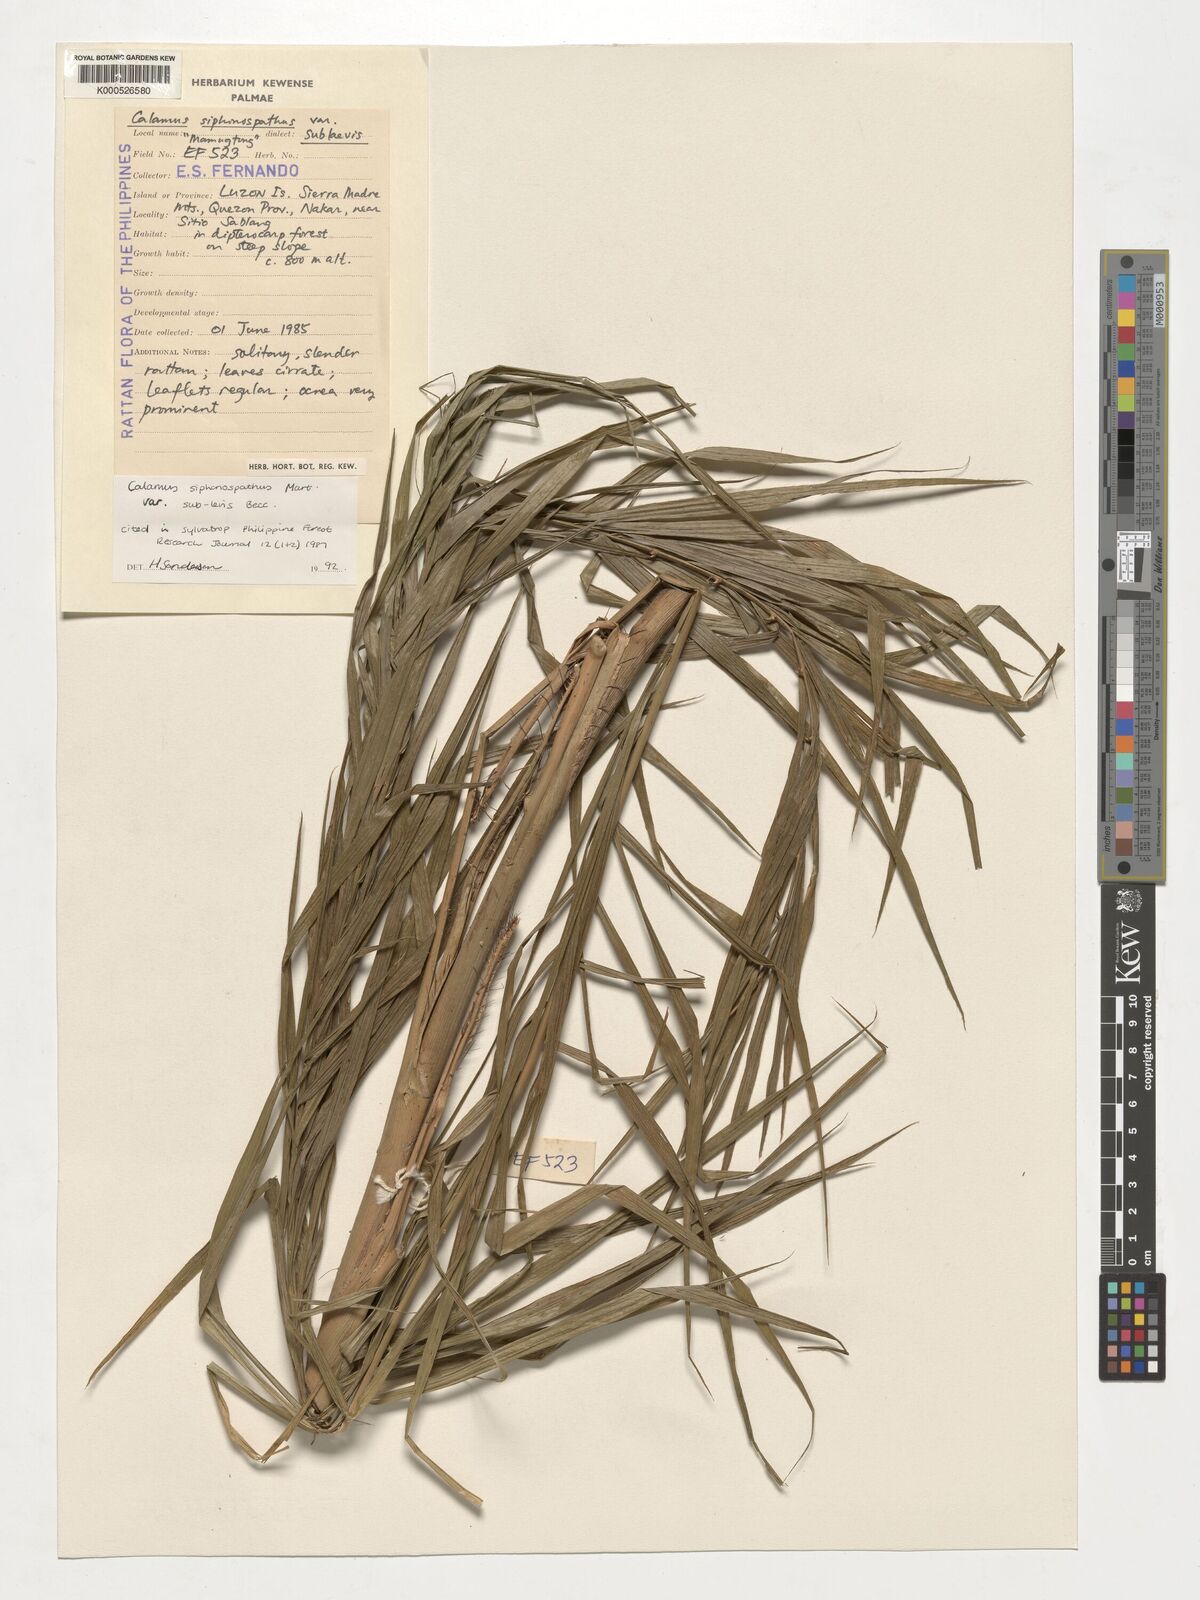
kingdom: Plantae
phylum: Tracheophyta
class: Liliopsida
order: Arecales
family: Arecaceae
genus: Calamus
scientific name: Calamus siphonospathus
